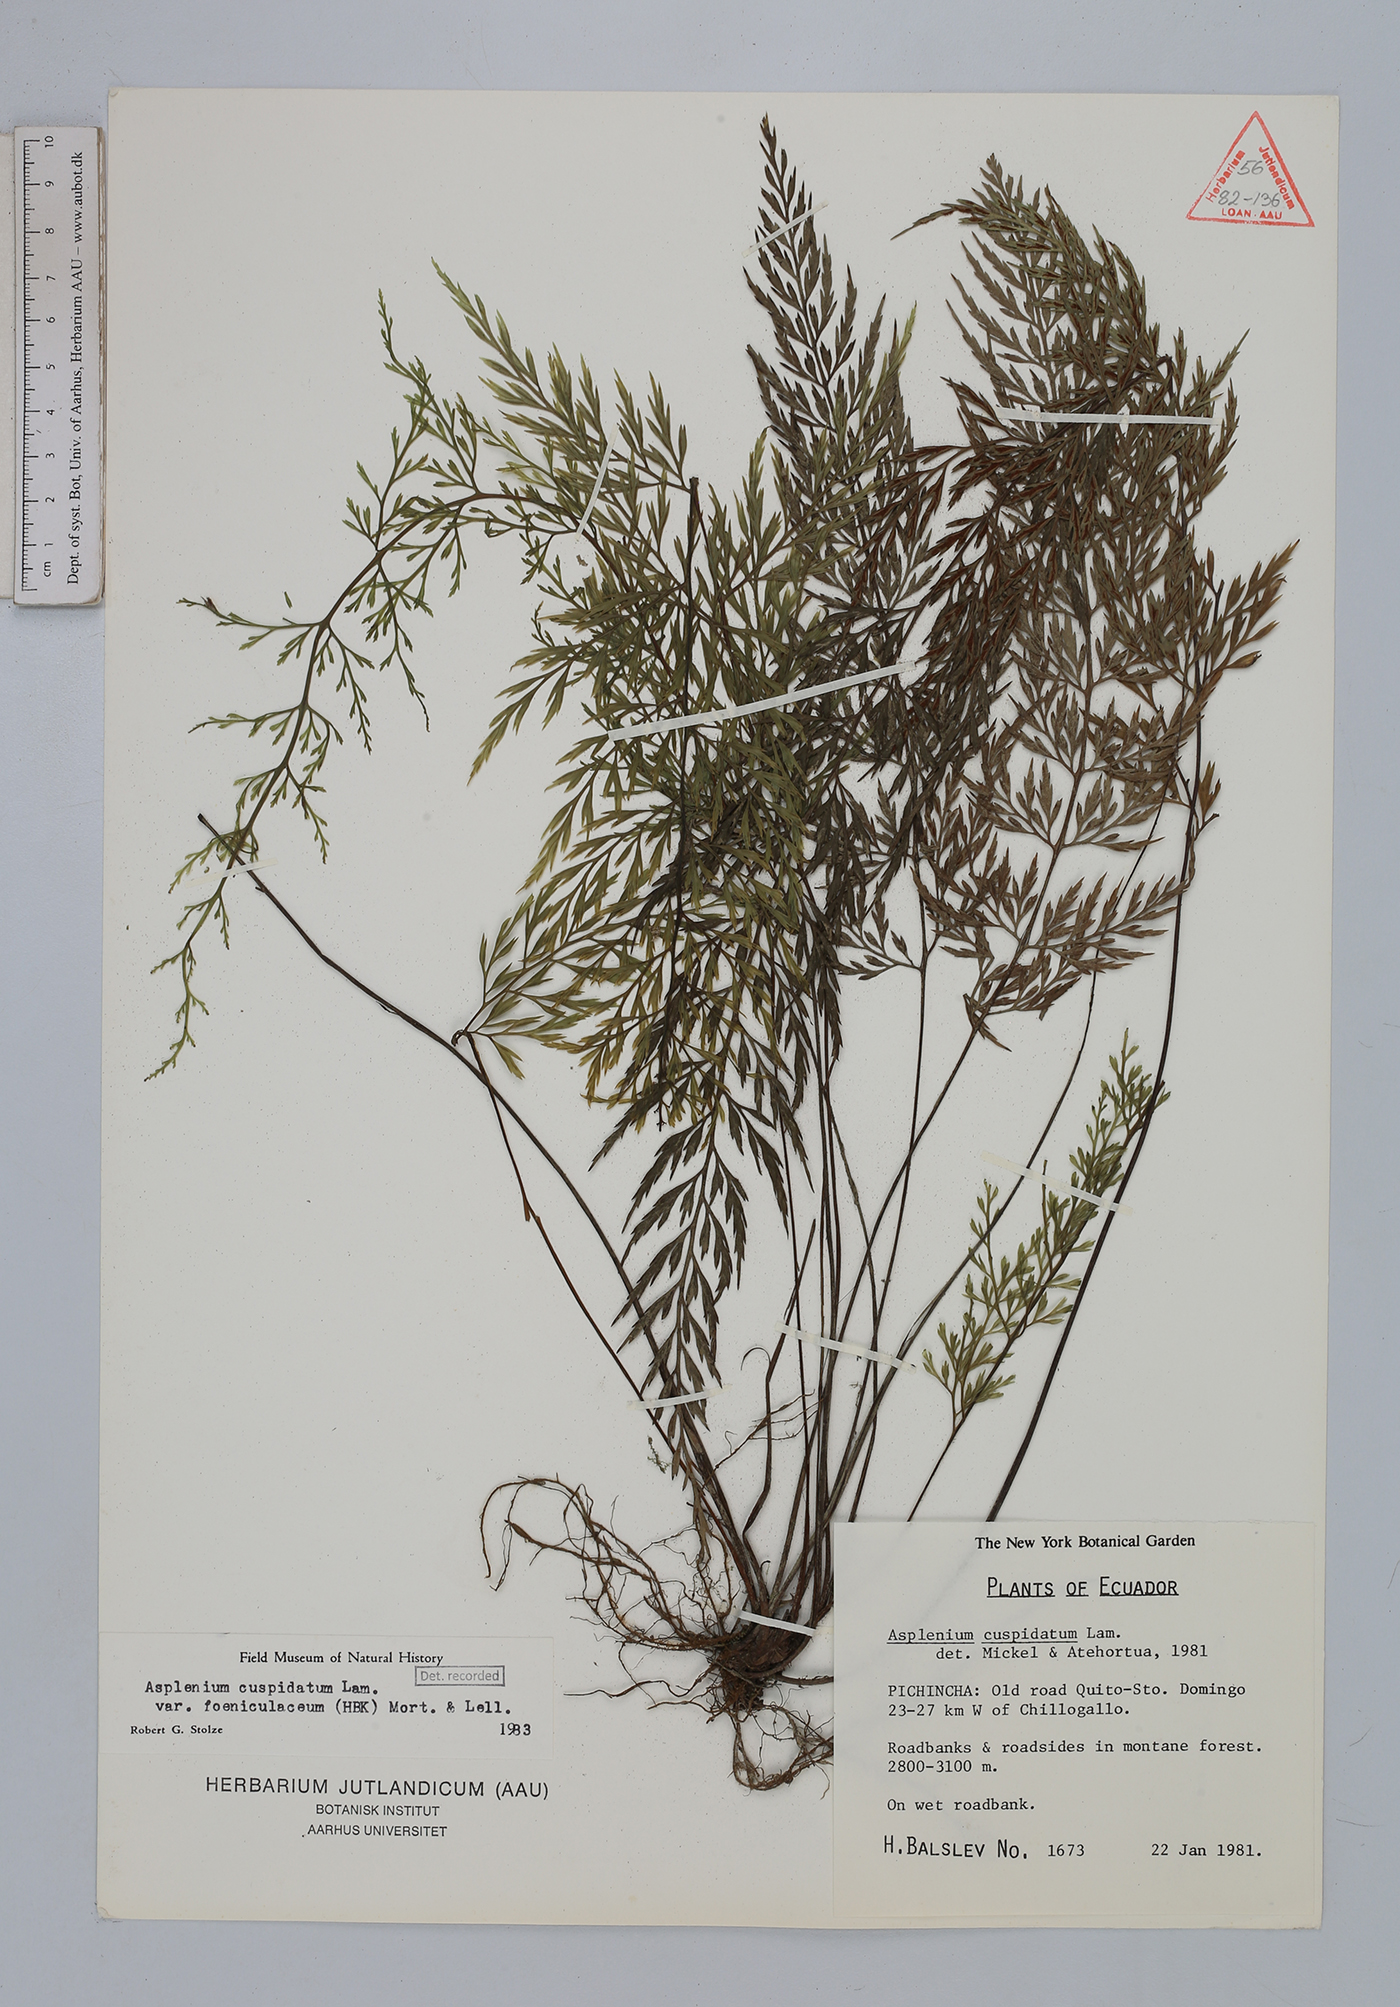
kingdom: Plantae
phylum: Tracheophyta
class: Polypodiopsida
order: Polypodiales
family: Aspleniaceae
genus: Asplenium
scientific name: Asplenium fragrans
